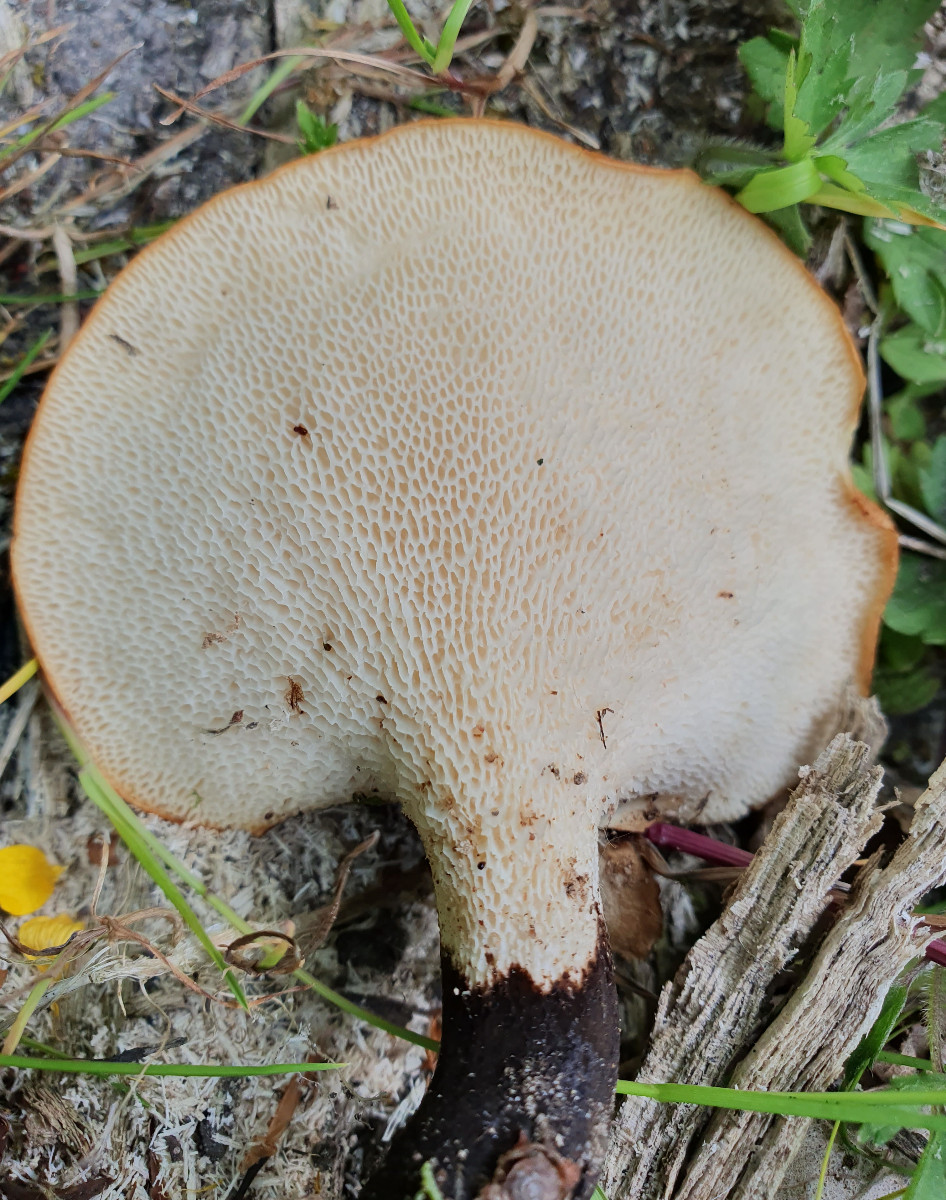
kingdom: Fungi
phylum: Basidiomycota
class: Agaricomycetes
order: Polyporales
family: Polyporaceae
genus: Cerioporus
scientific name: Cerioporus squamosus
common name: skællet stilkporesvamp
